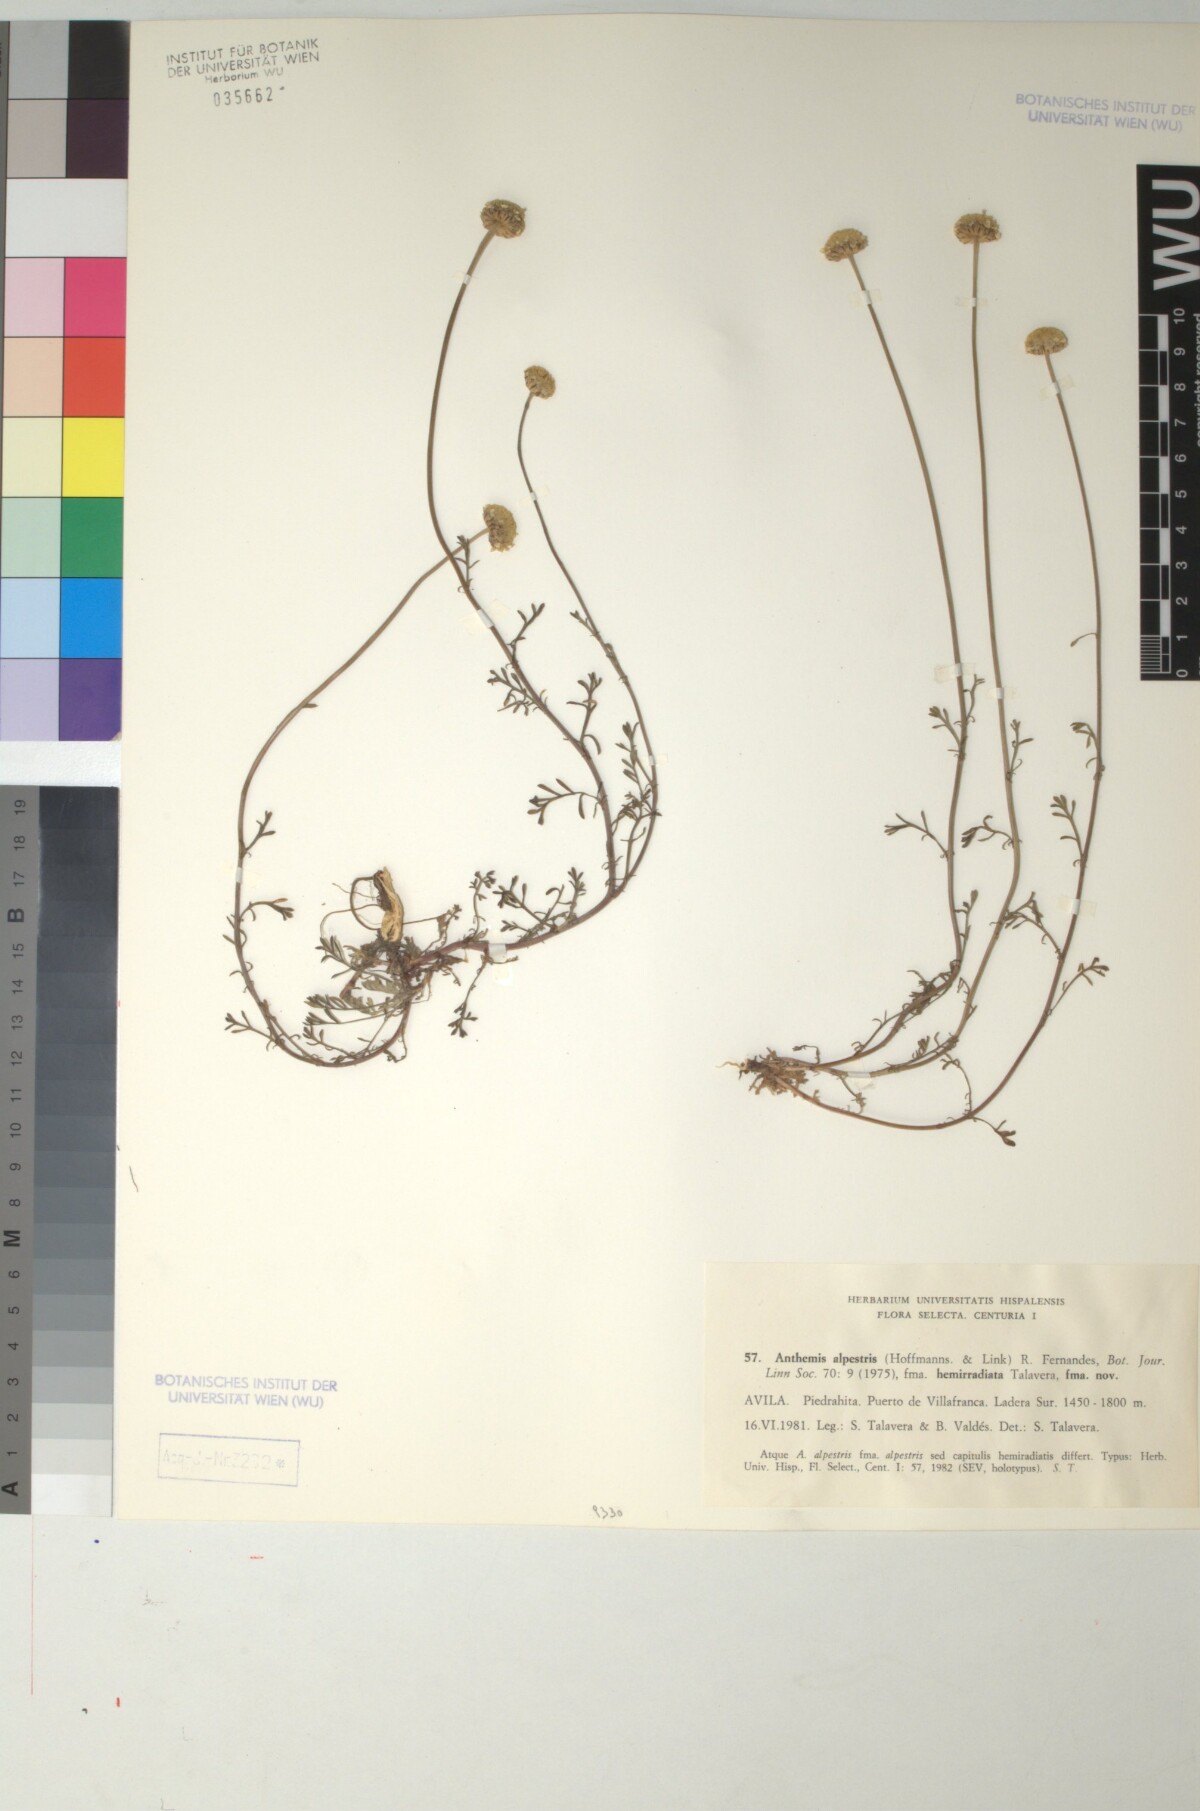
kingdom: Plantae
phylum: Tracheophyta
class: Magnoliopsida
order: Asterales
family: Asteraceae
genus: Anthemis
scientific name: Anthemis alpestris
